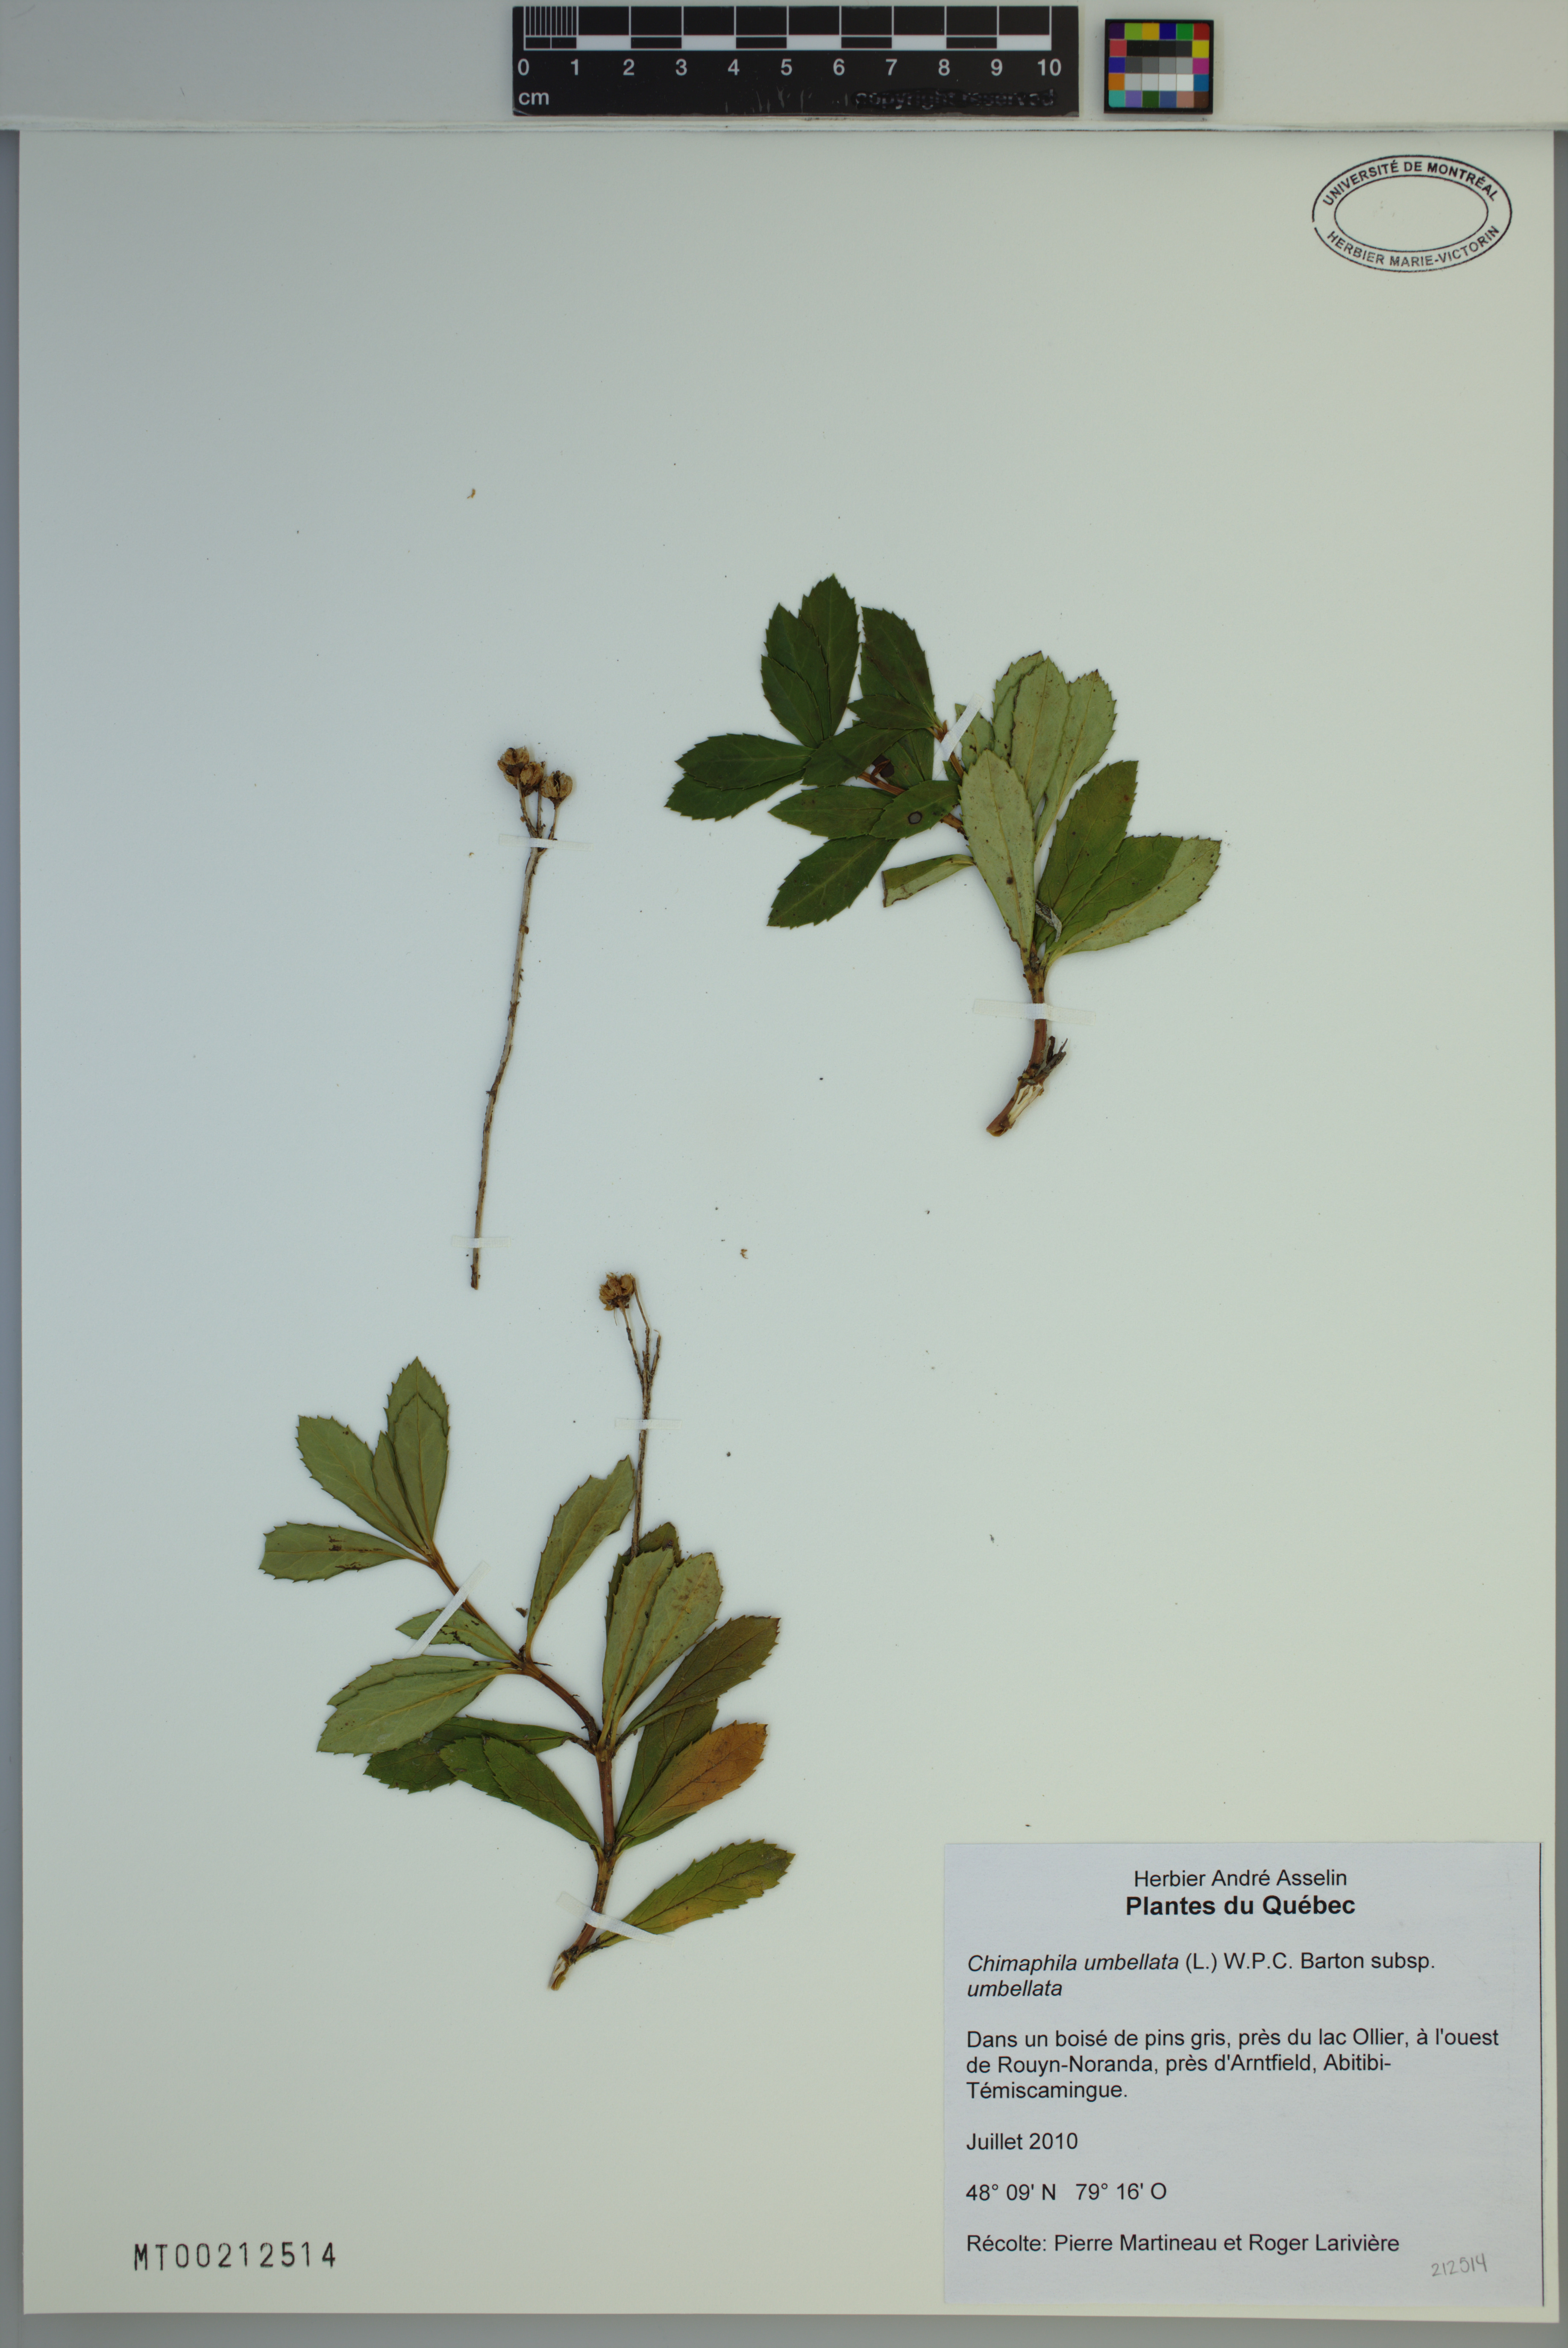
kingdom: Plantae
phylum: Tracheophyta
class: Magnoliopsida
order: Ericales
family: Ericaceae
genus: Chimaphila
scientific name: Chimaphila umbellata
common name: Pipsissewa
